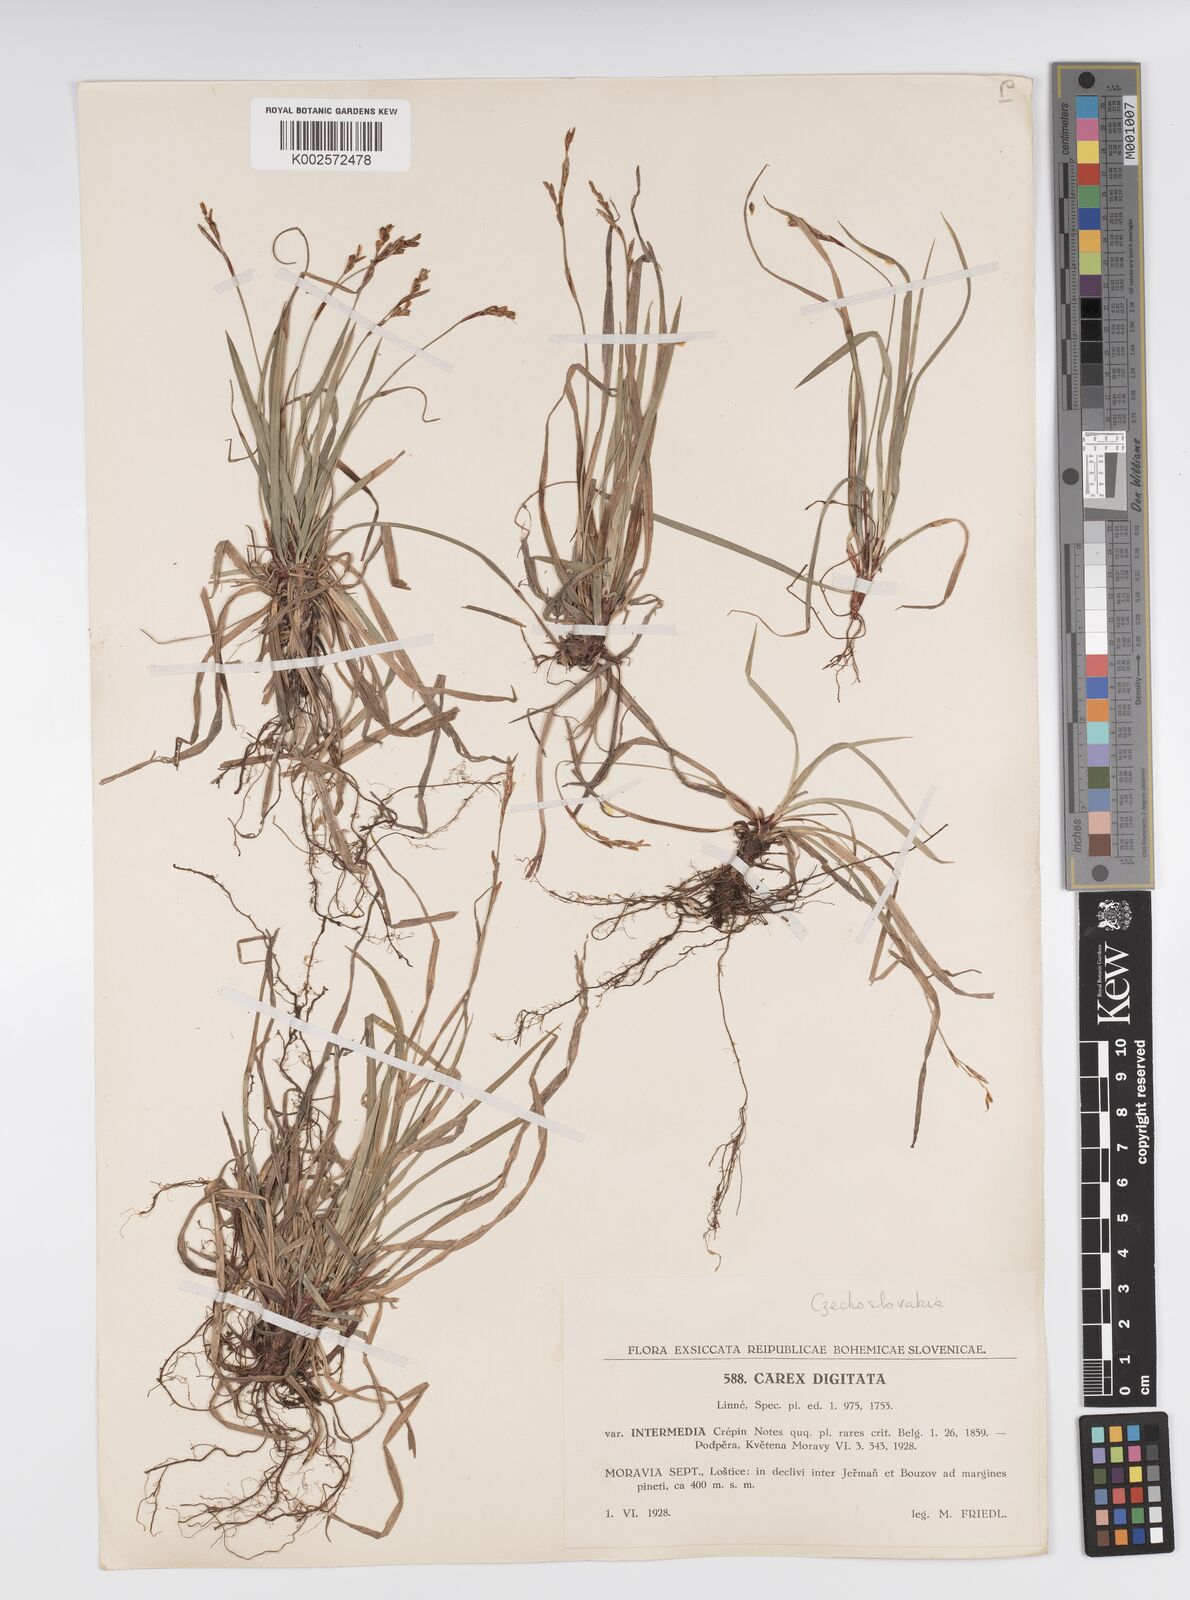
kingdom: Plantae
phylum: Tracheophyta
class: Liliopsida
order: Poales
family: Cyperaceae
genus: Carex
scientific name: Carex digitata
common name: Fingered sedge
